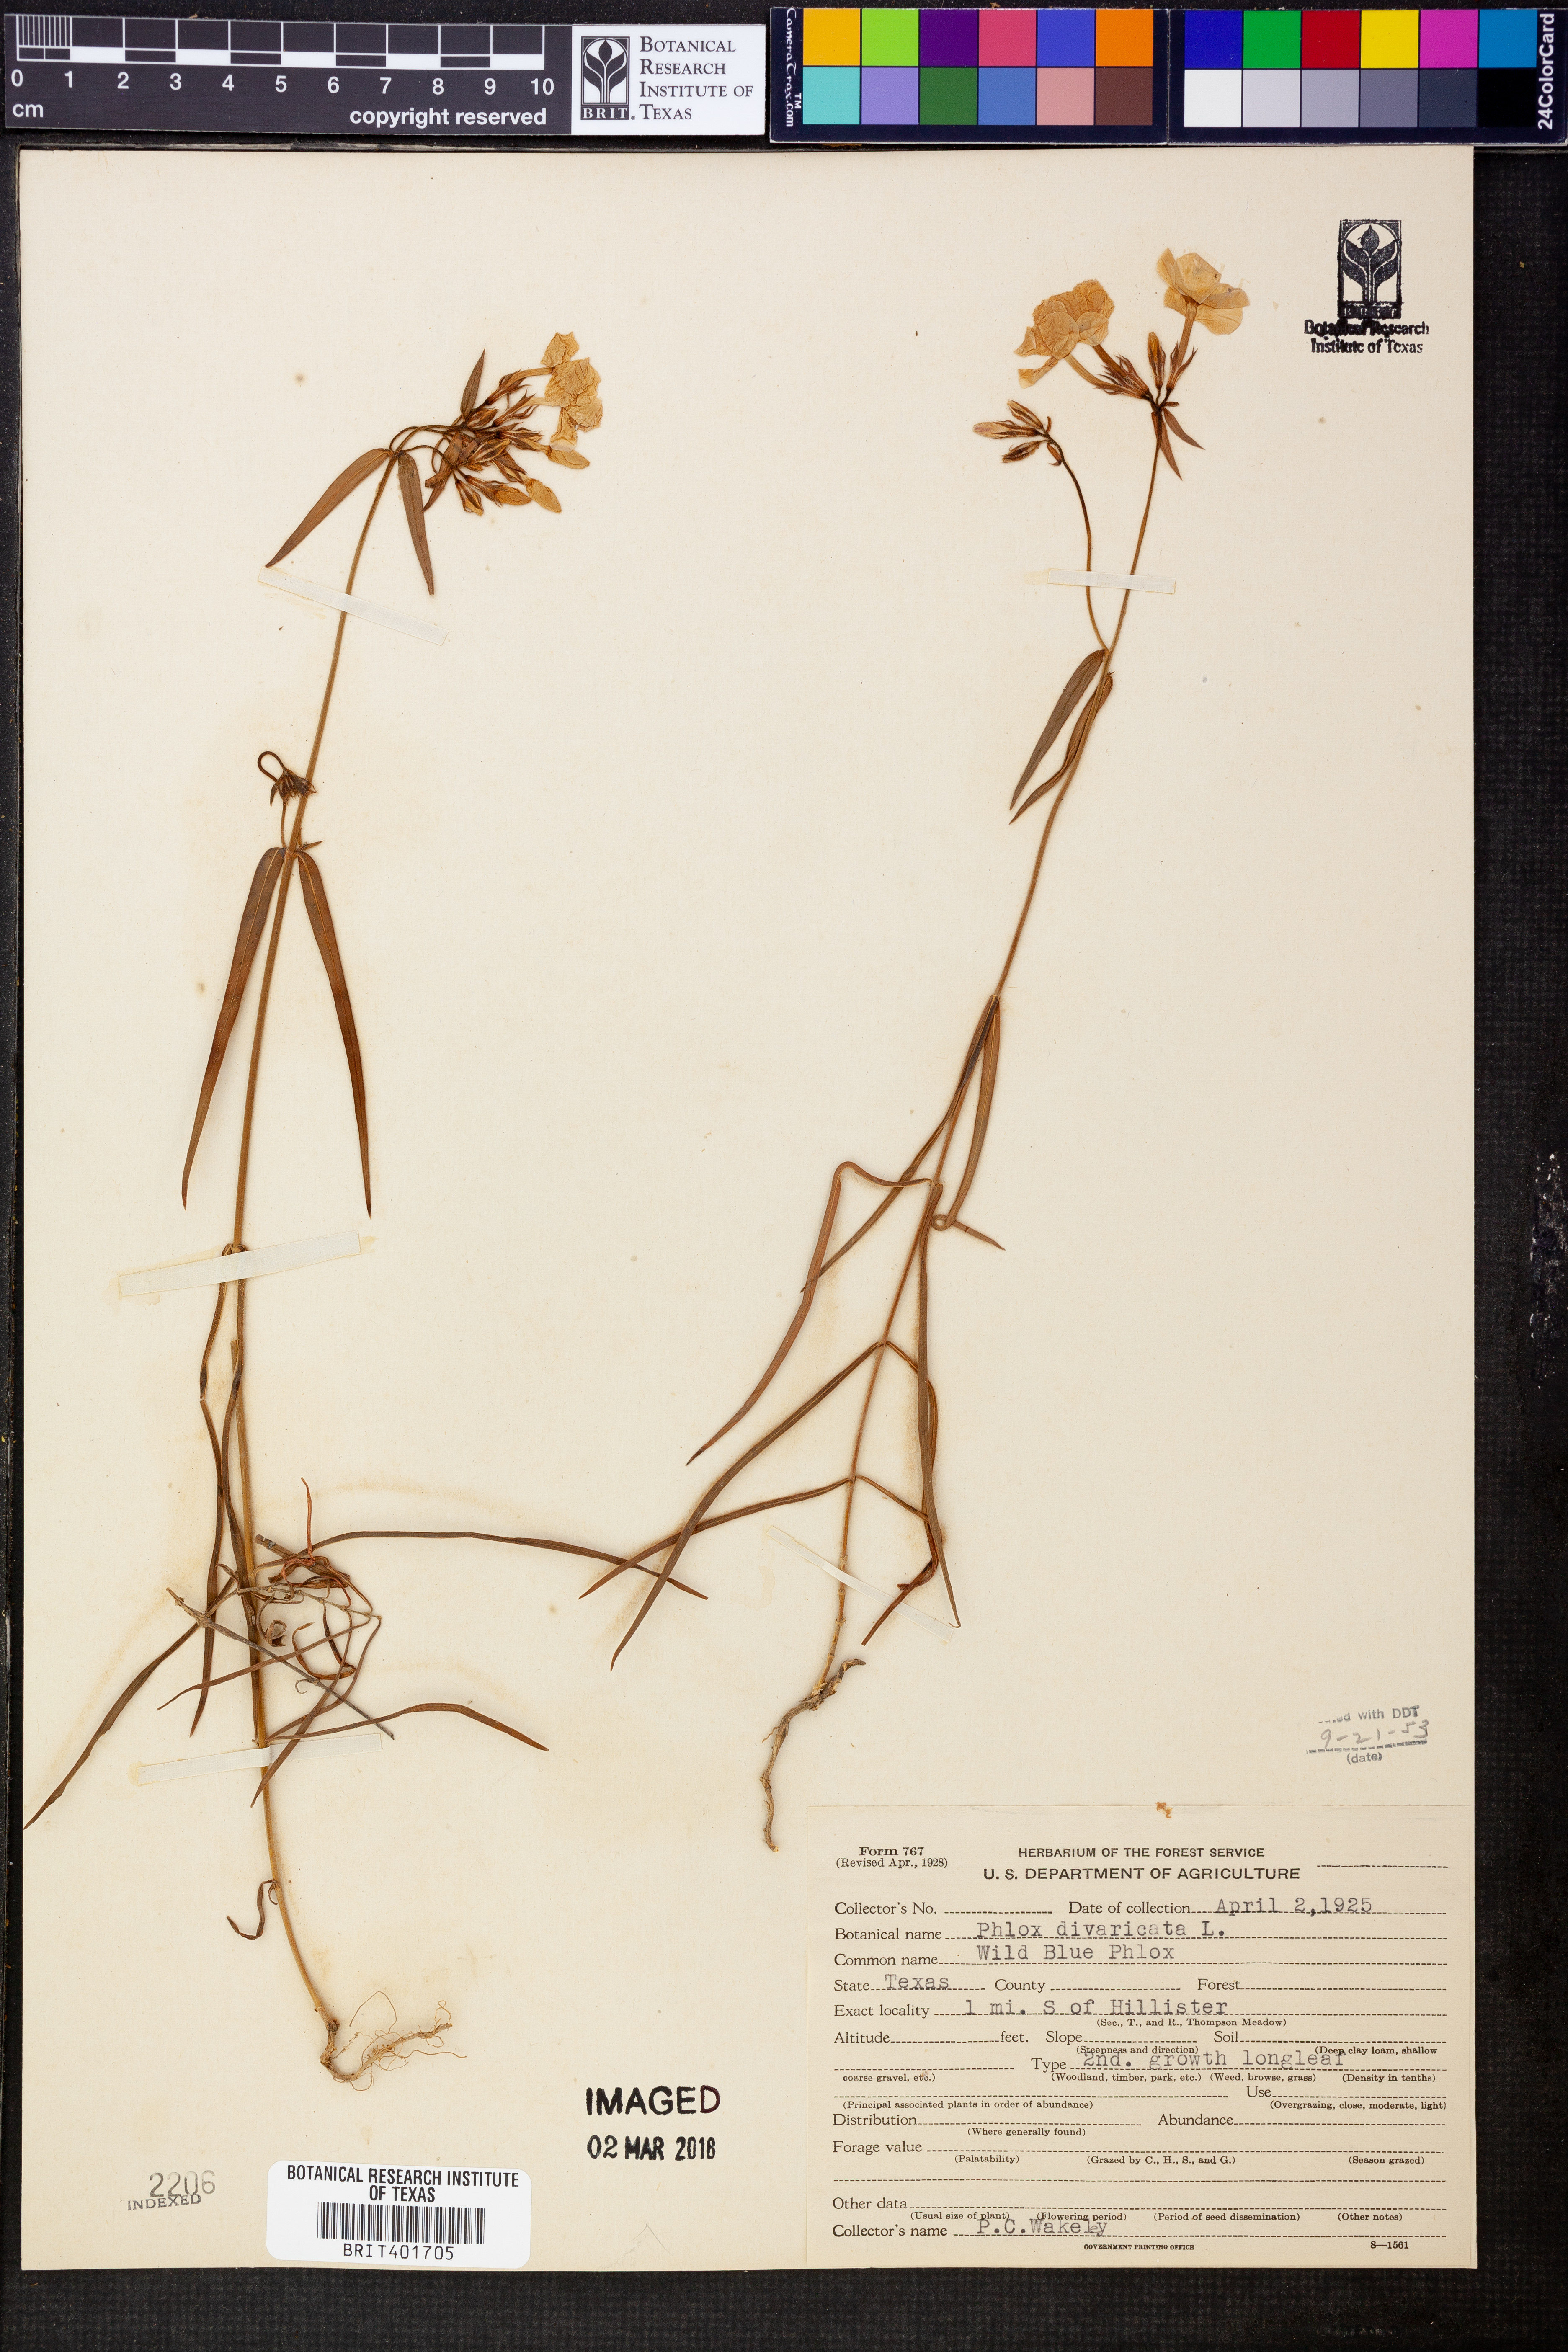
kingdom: Plantae
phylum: Tracheophyta
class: Magnoliopsida
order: Ericales
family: Polemoniaceae
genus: Phlox
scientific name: Phlox divaricata
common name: Blue phlox
